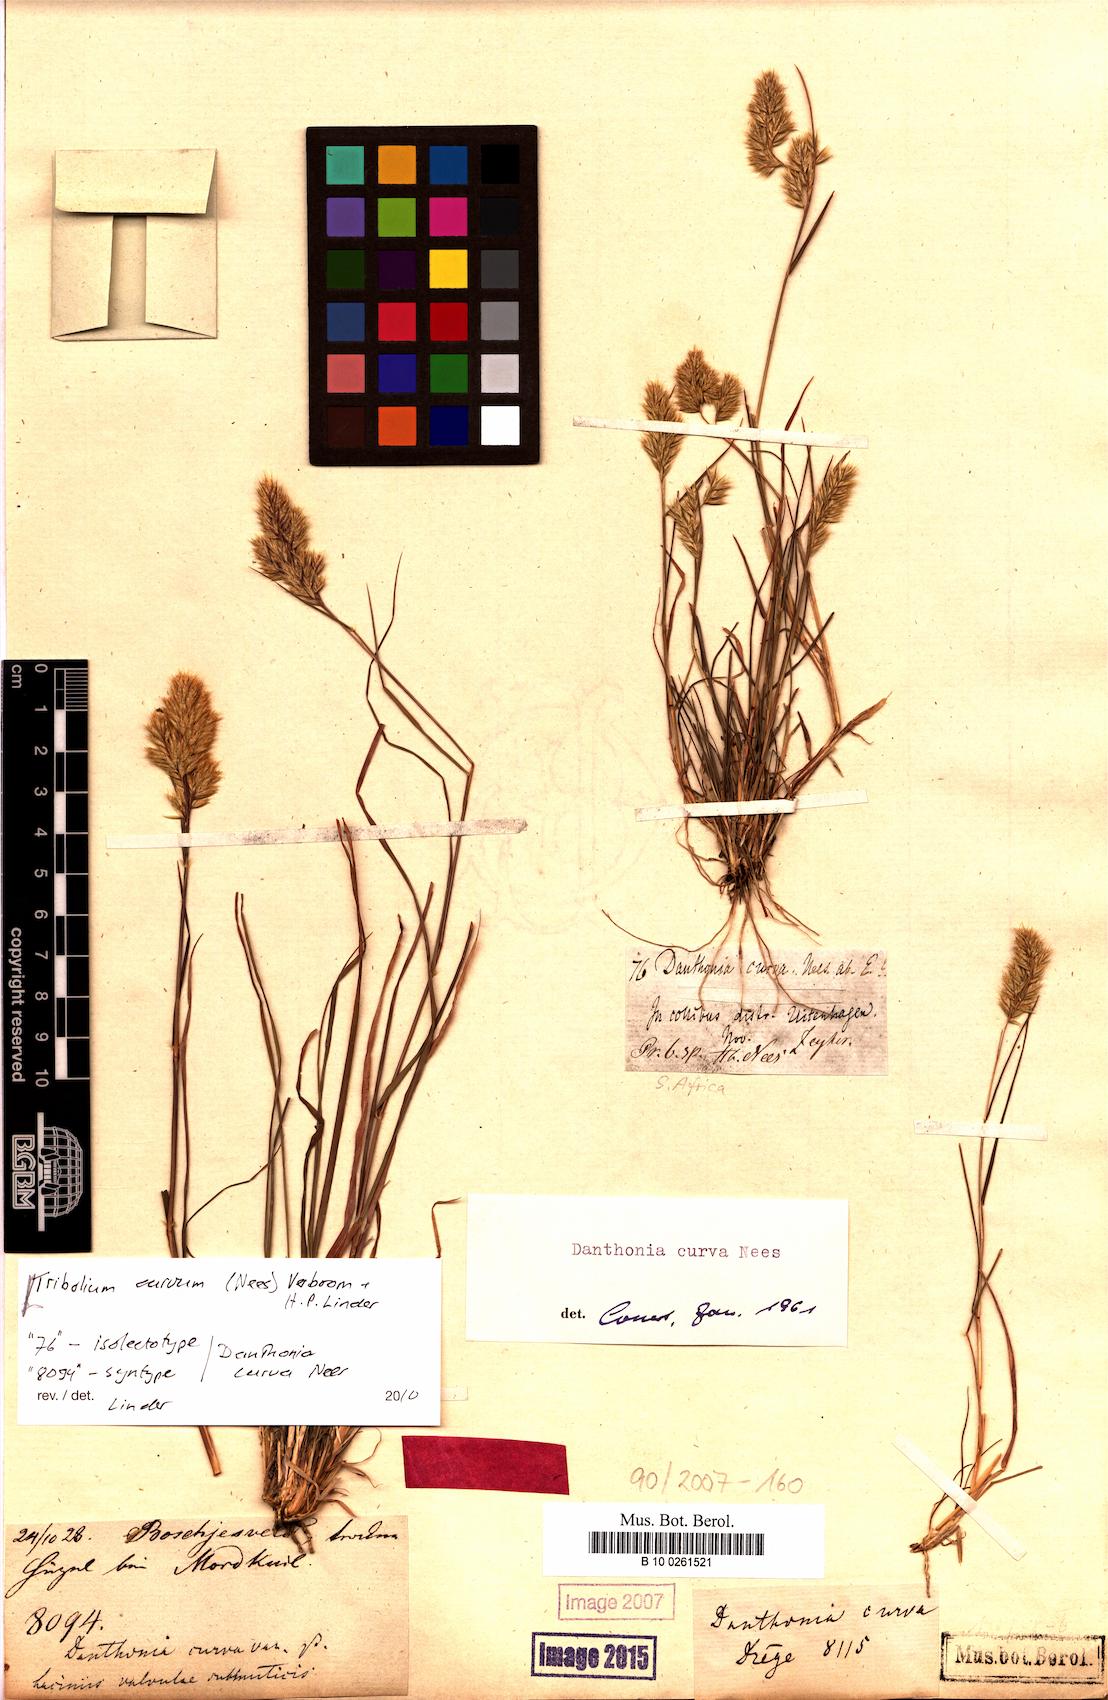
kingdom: Plantae
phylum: Tracheophyta
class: Liliopsida
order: Poales
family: Poaceae
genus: Tribolium
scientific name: Tribolium curvum
